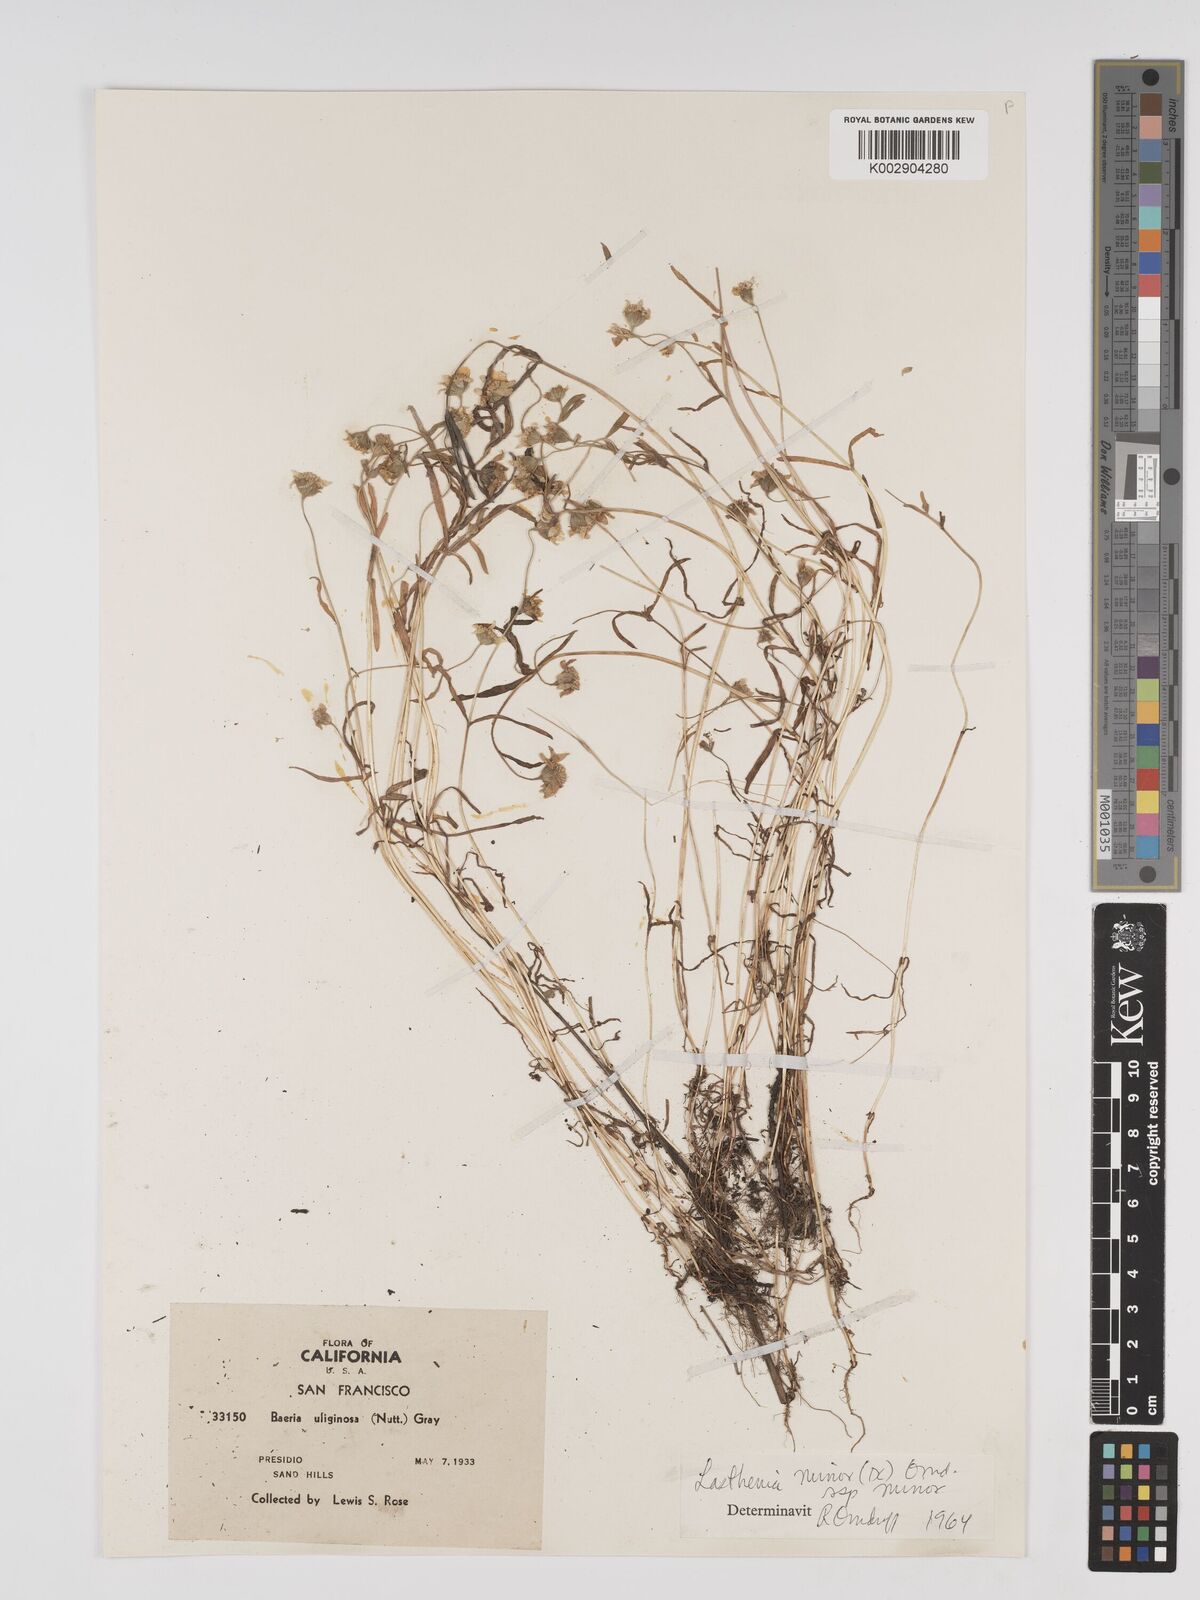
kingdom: Plantae
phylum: Tracheophyta
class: Magnoliopsida
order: Asterales
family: Asteraceae
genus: Lasthenia
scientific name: Lasthenia minor
